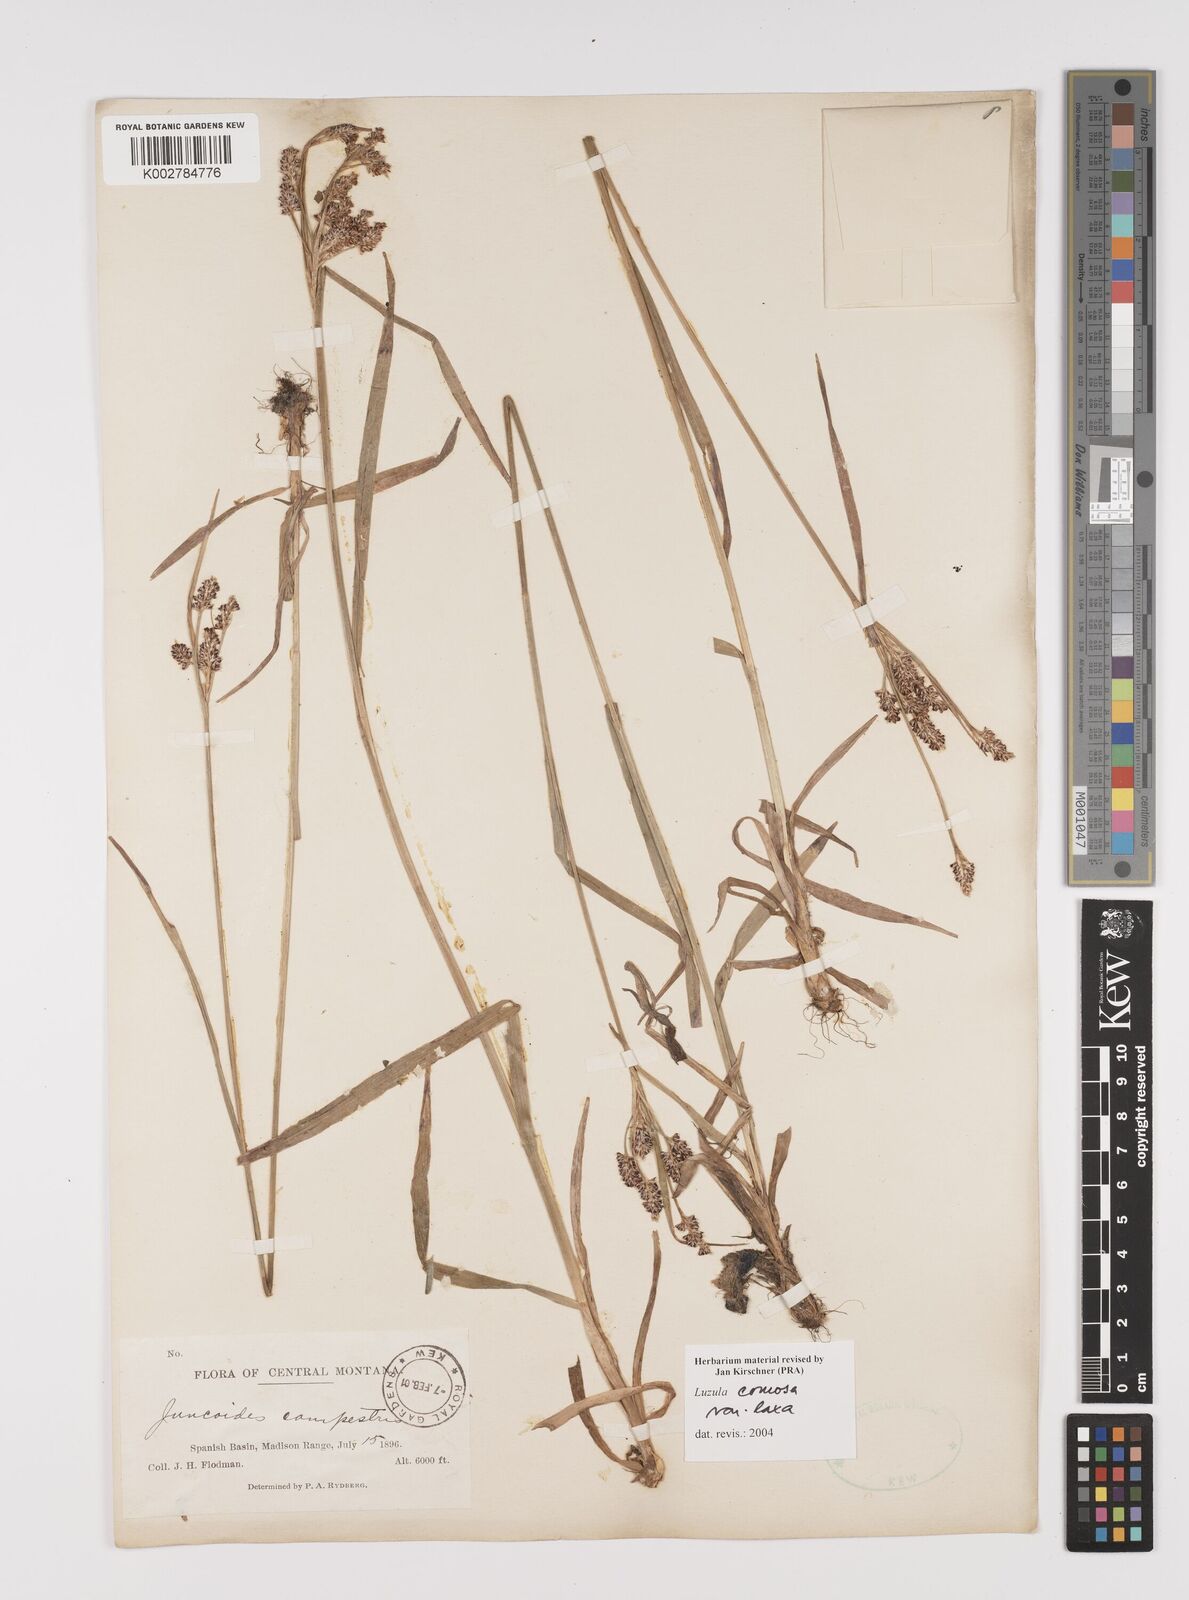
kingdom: Plantae
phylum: Tracheophyta
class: Liliopsida
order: Poales
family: Juncaceae
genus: Luzula
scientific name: Luzula comosa
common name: Pacific woodrush
